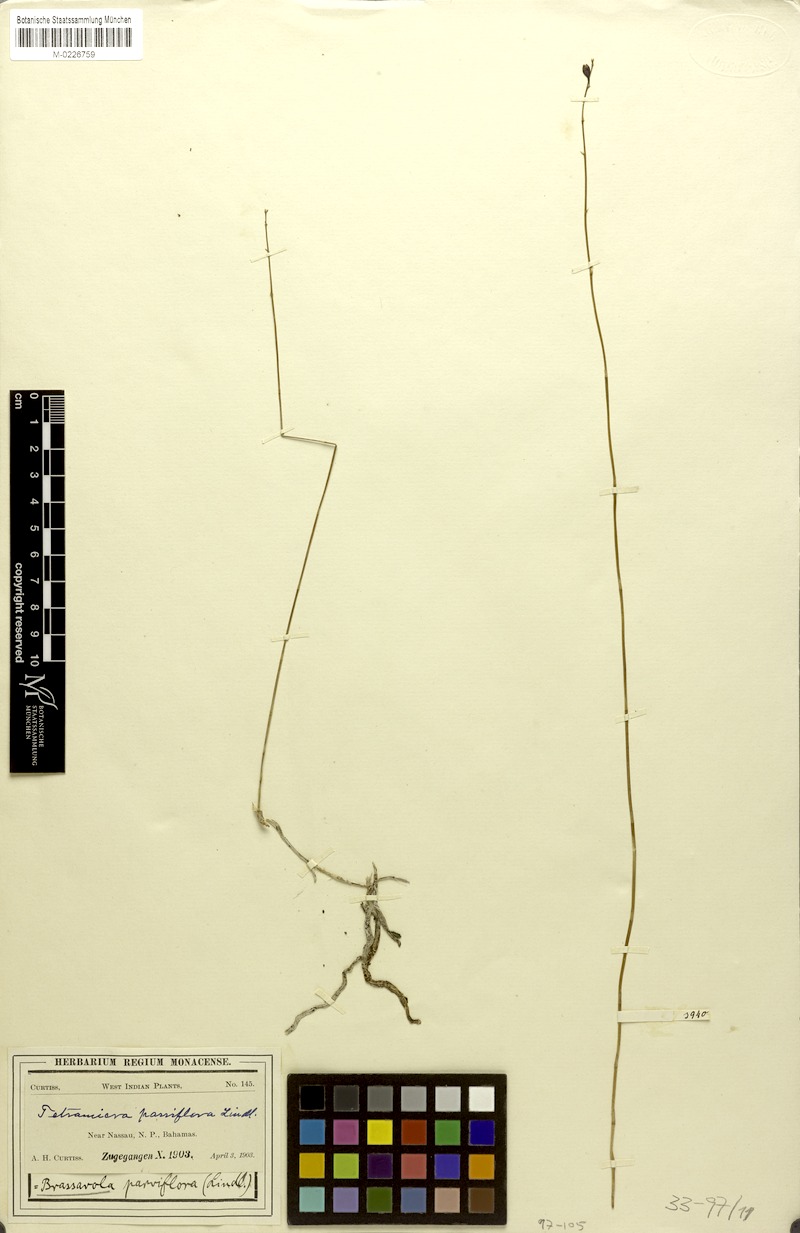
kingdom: Plantae
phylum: Tracheophyta
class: Liliopsida
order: Asparagales
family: Orchidaceae
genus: Tetramicra
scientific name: Tetramicra parviflora
